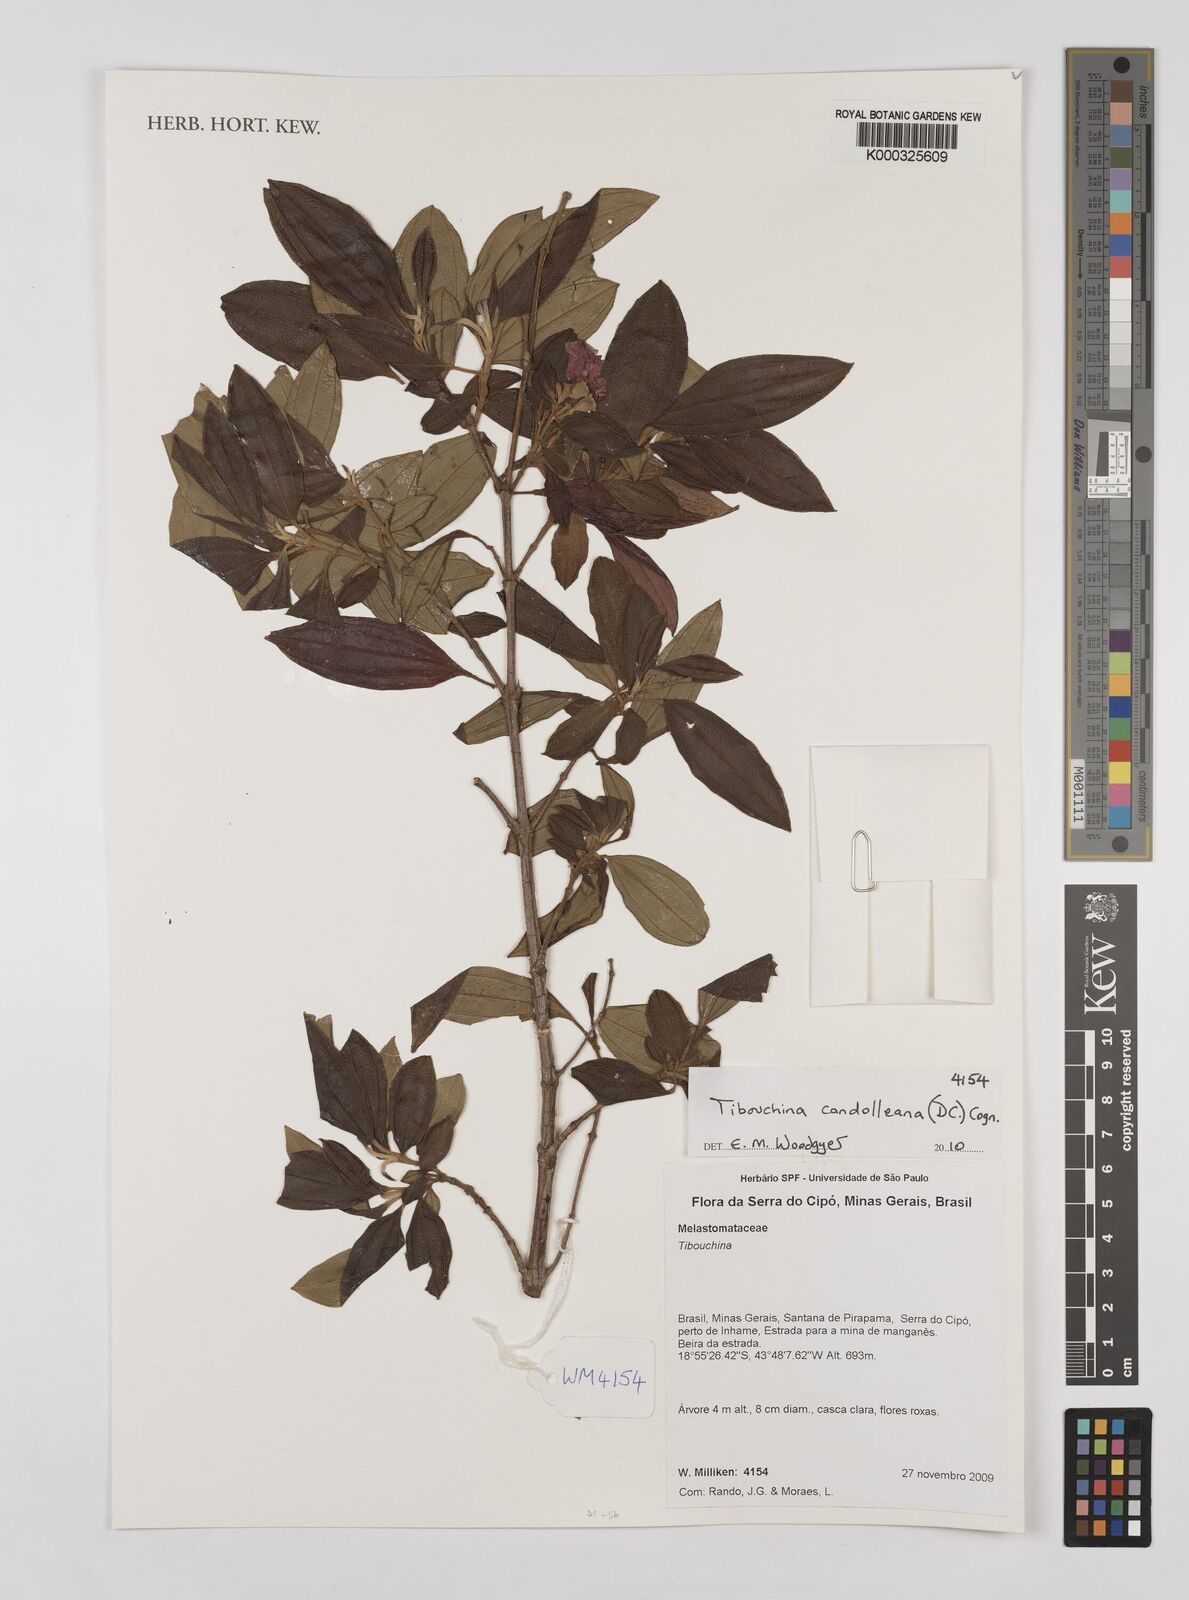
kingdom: Plantae
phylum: Tracheophyta
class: Magnoliopsida
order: Myrtales
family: Melastomataceae
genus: Pleroma
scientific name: Pleroma candolleanum
